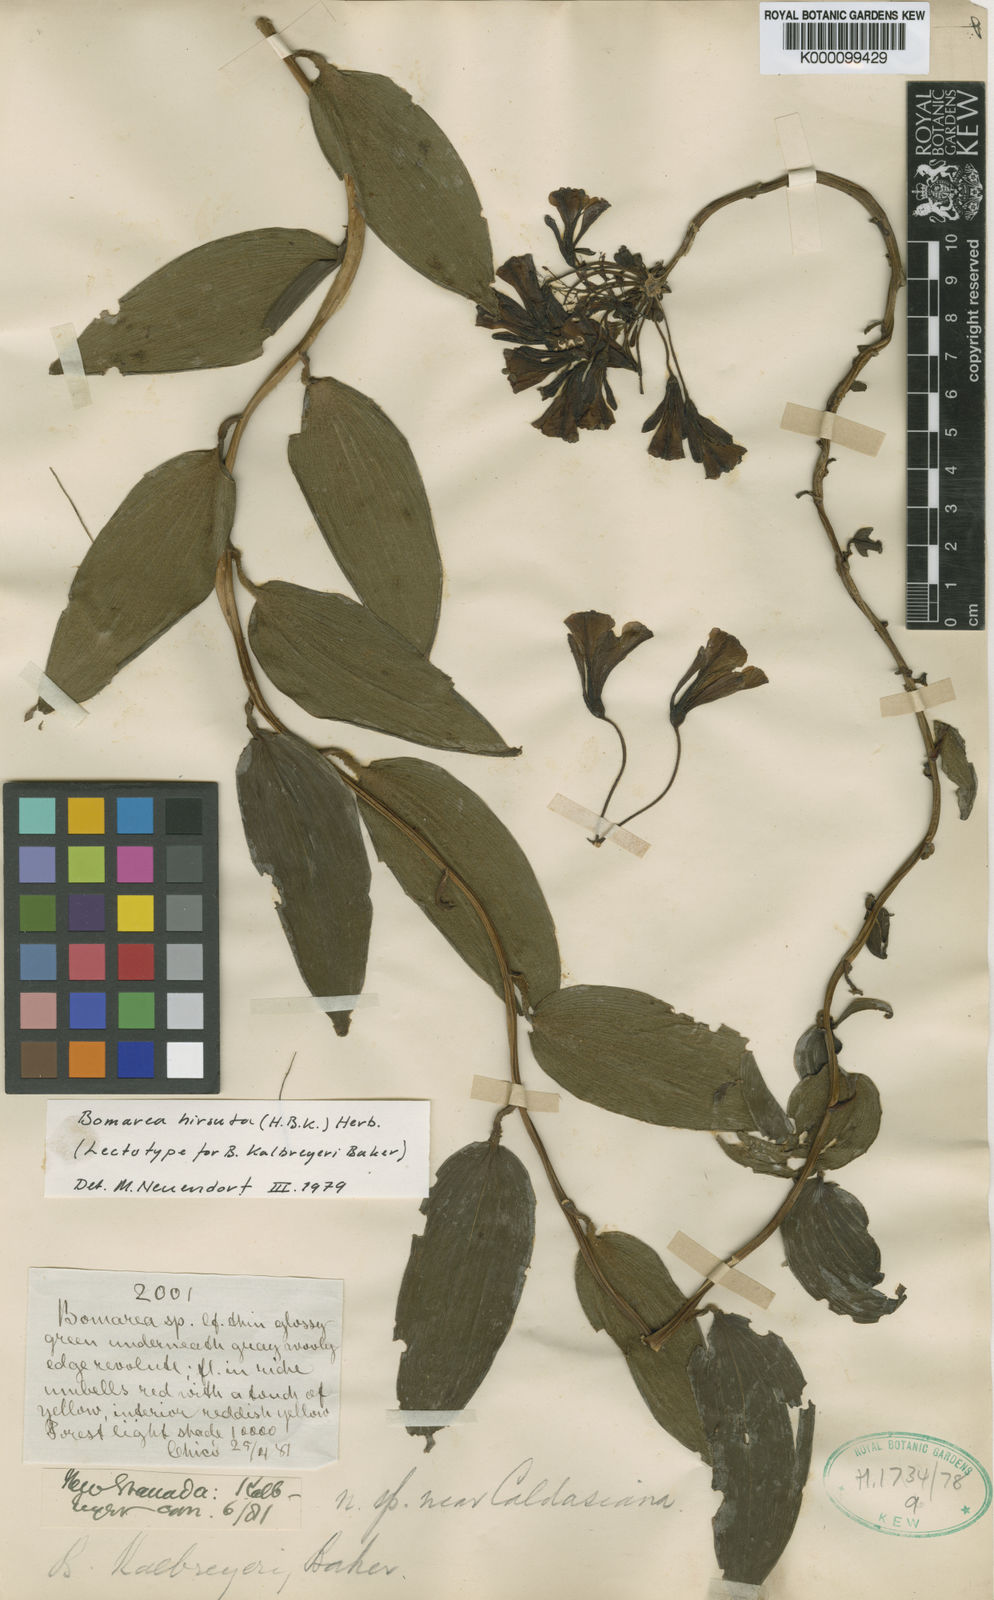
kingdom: Plantae
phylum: Tracheophyta
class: Liliopsida
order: Liliales
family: Alstroemeriaceae
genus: Bomarea
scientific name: Bomarea hirsuta
